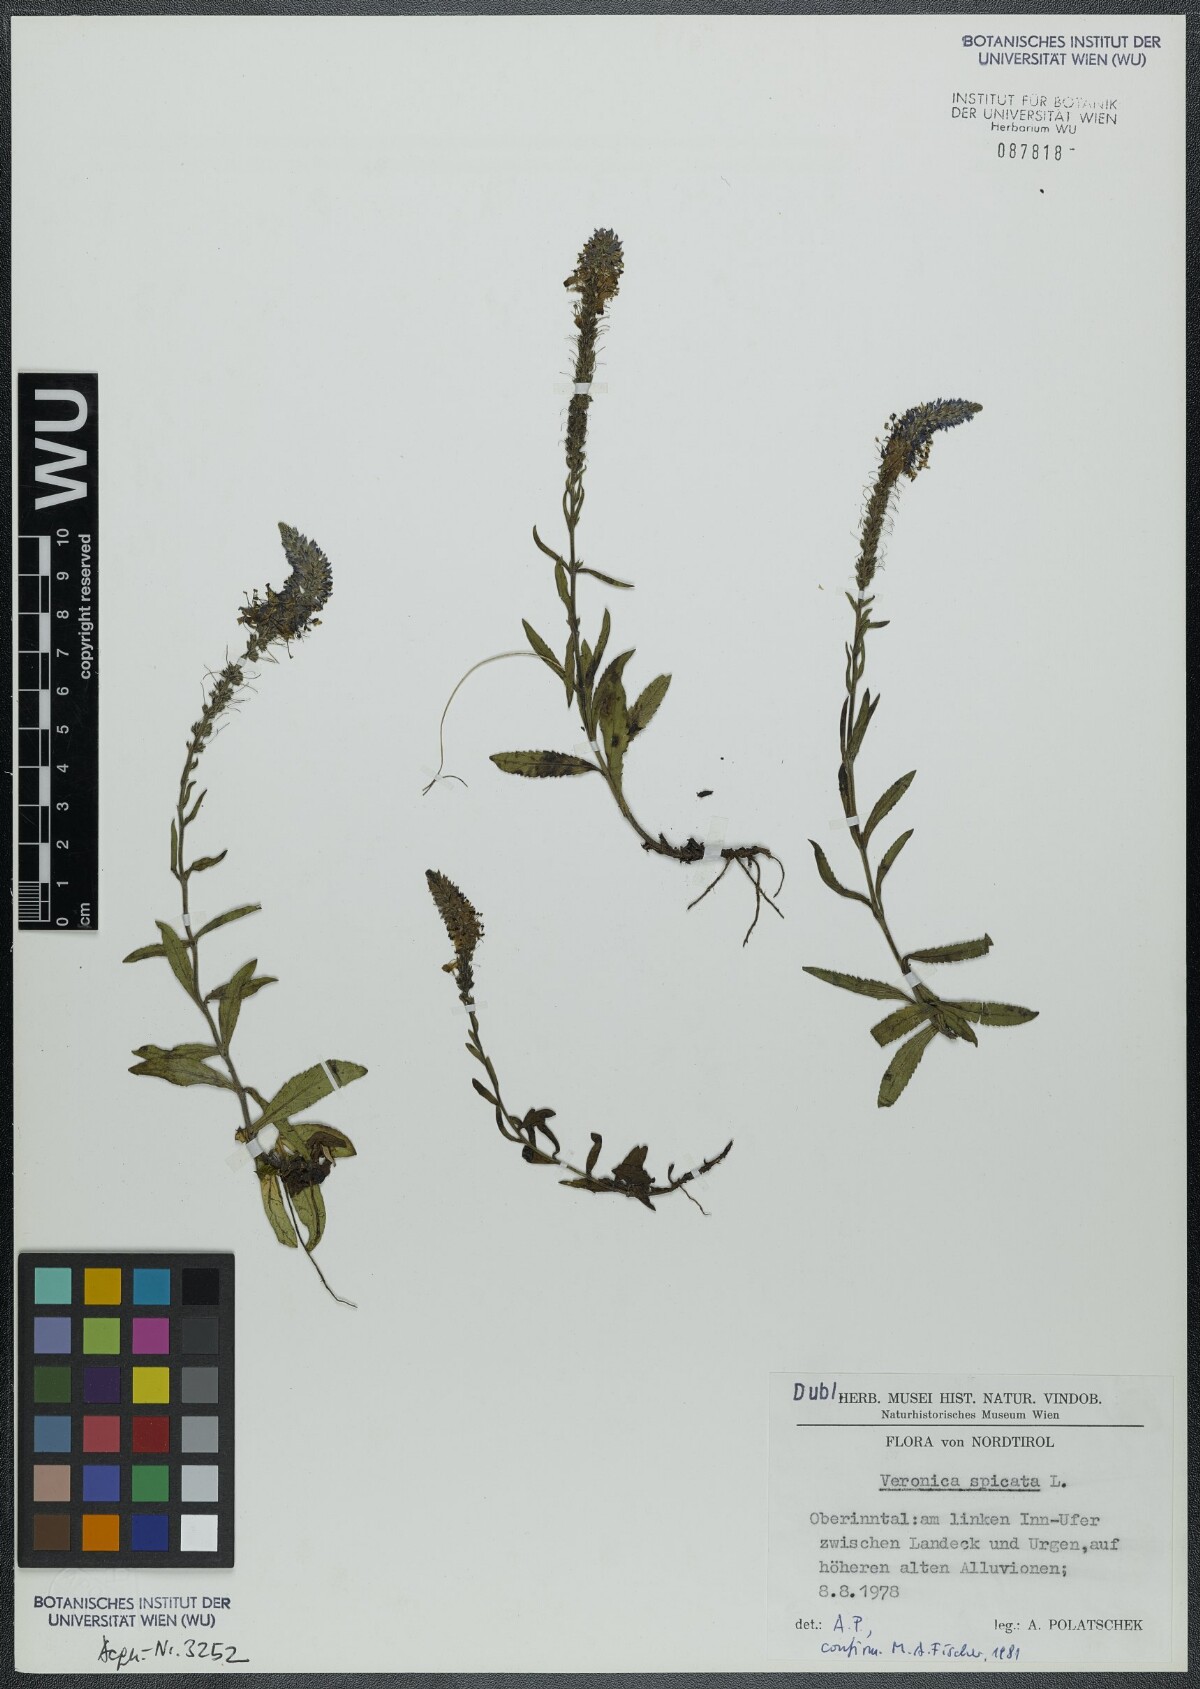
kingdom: Plantae
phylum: Tracheophyta
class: Magnoliopsida
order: Lamiales
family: Plantaginaceae
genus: Veronica
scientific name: Veronica spicata
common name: Spiked speedwell
